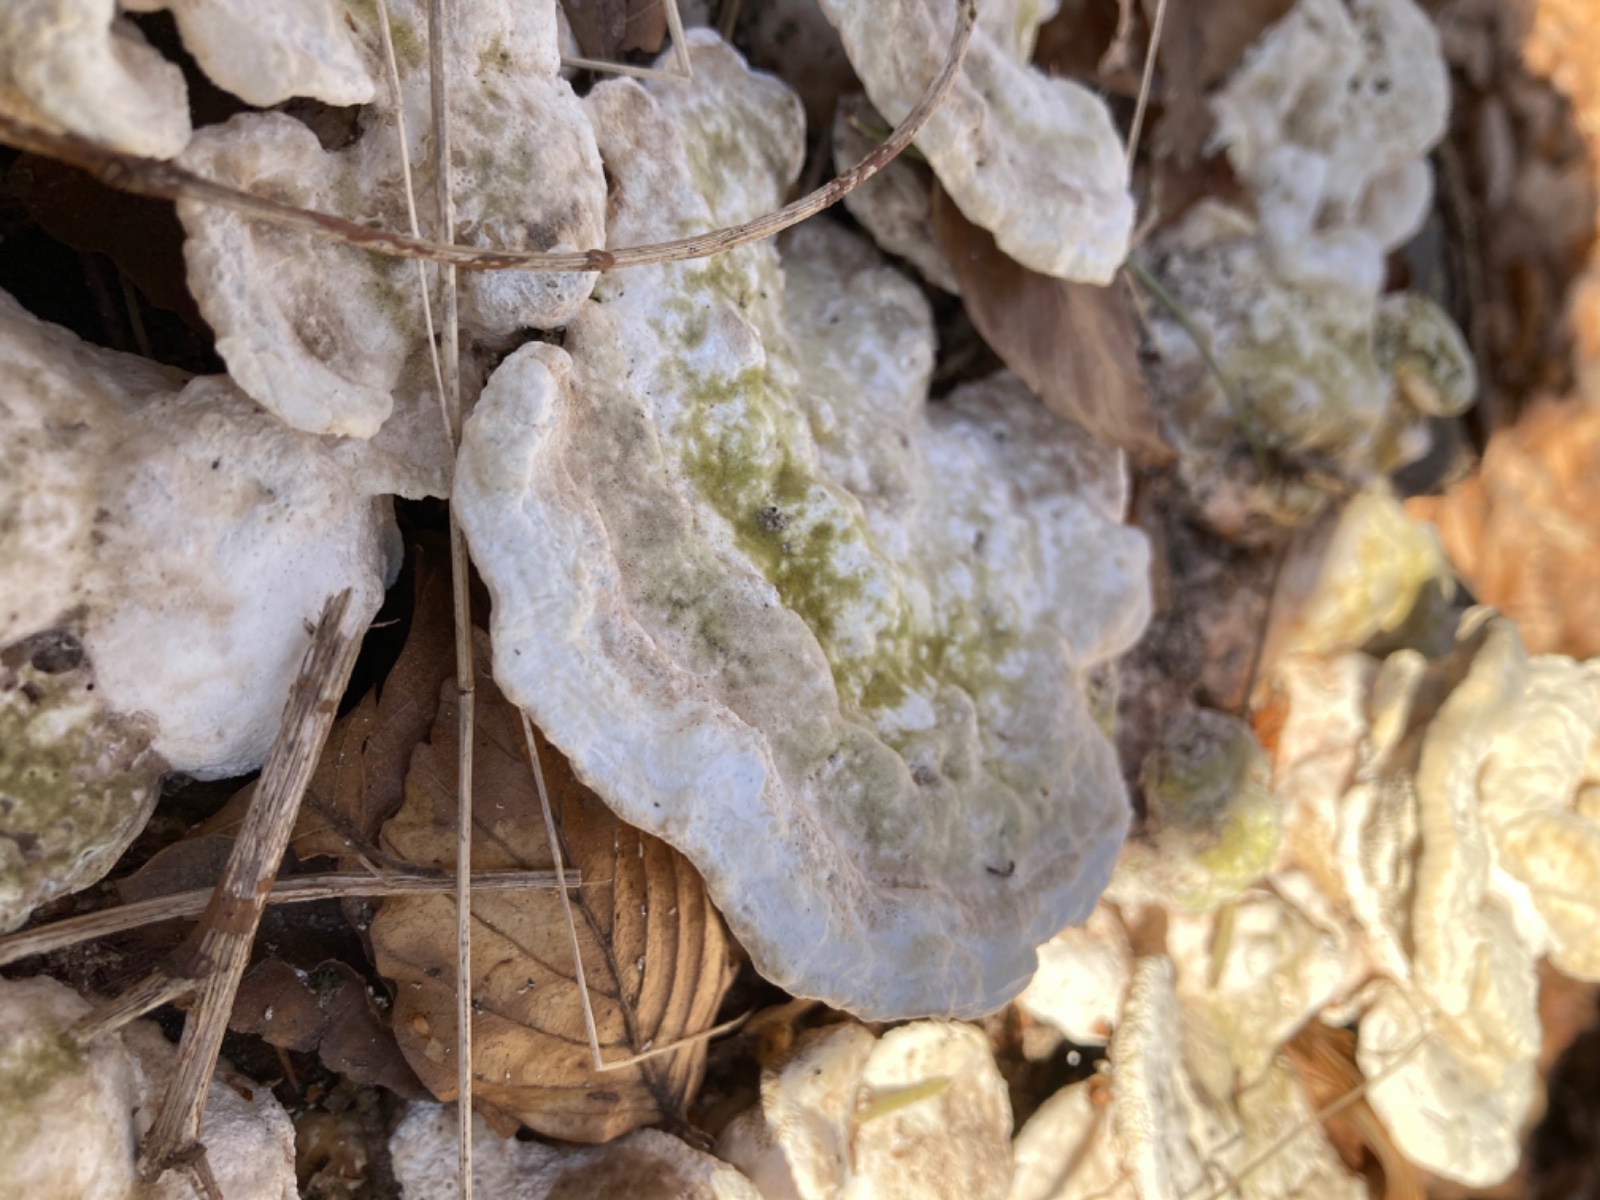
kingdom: Fungi
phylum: Basidiomycota
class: Agaricomycetes
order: Polyporales
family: Polyporaceae
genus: Trametes
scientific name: Trametes gibbosa
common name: puklet læderporesvamp
